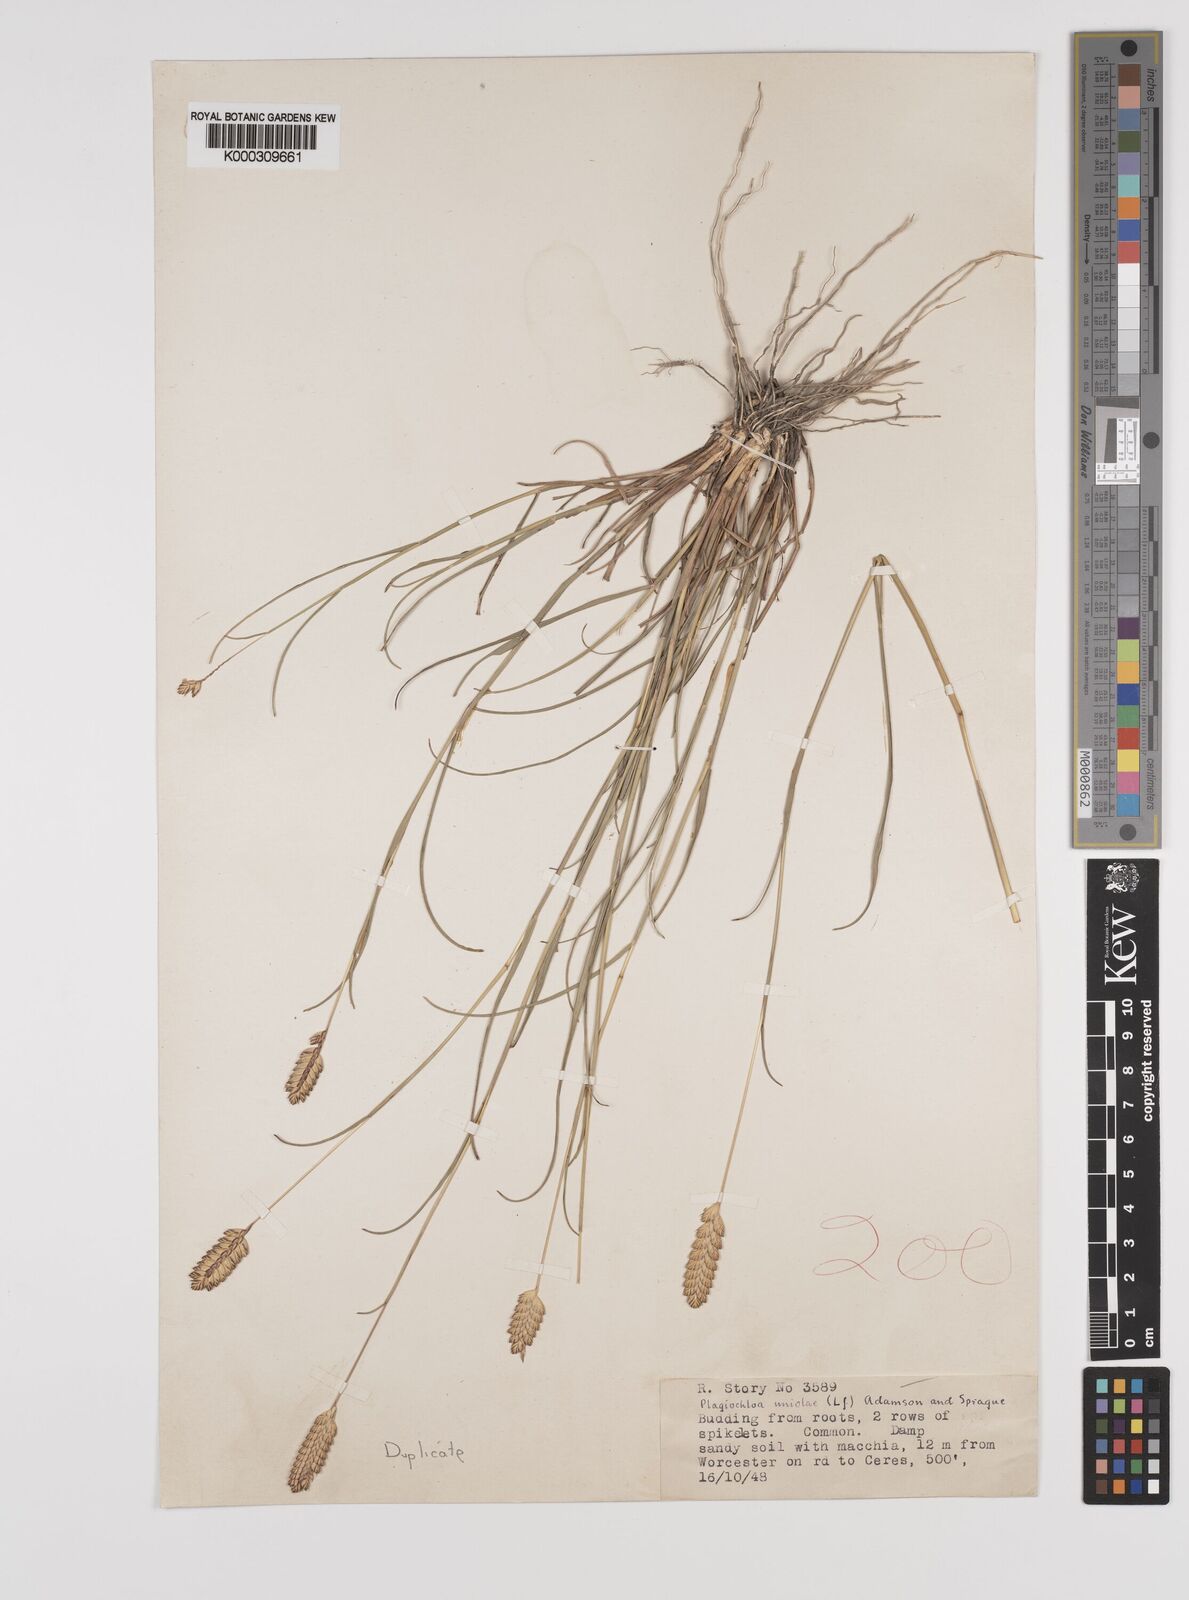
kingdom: Plantae
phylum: Tracheophyta
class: Liliopsida
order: Poales
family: Poaceae
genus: Tribolium
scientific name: Tribolium uniolae
